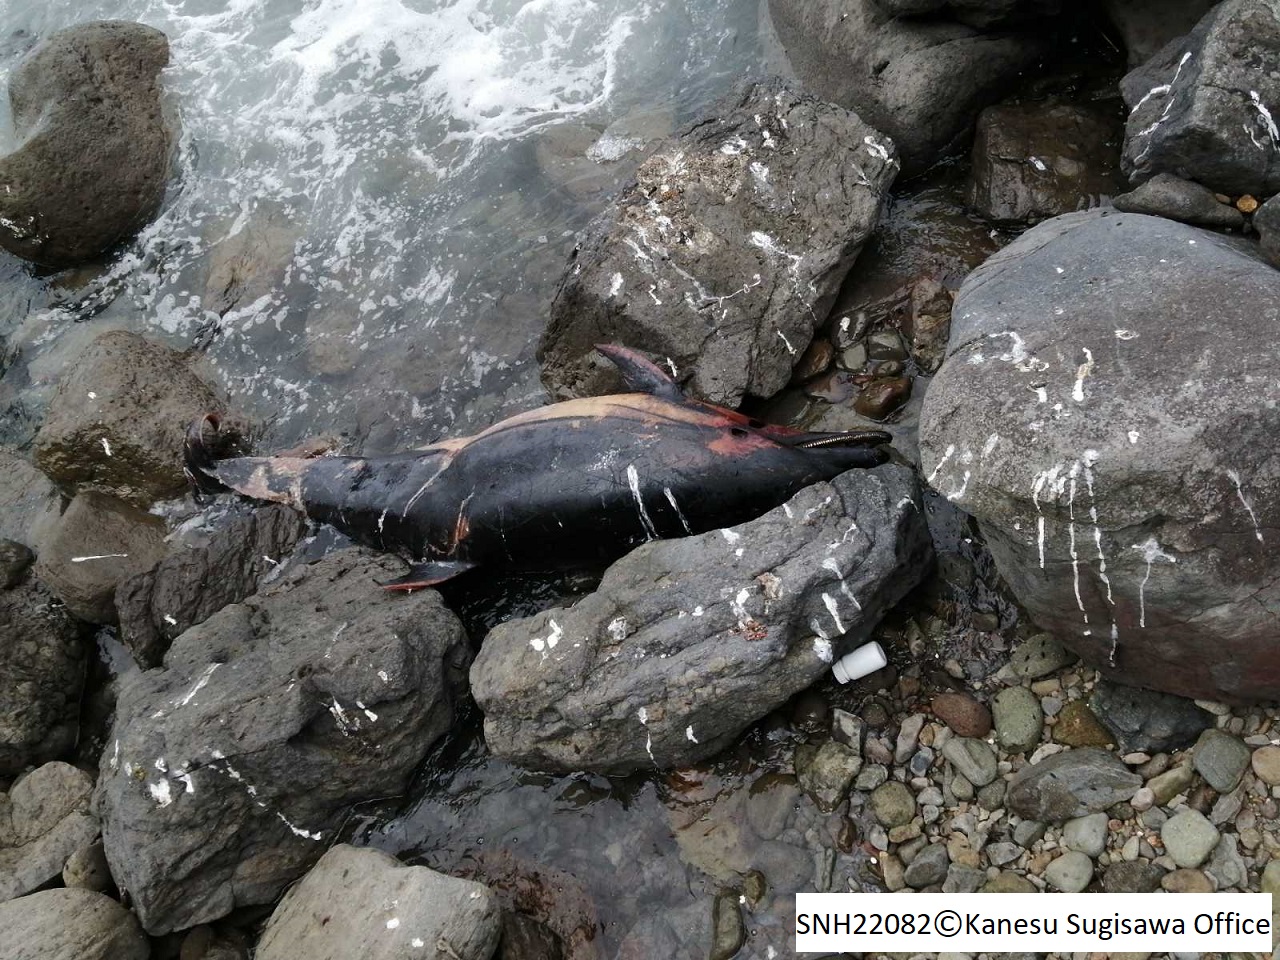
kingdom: Animalia
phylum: Chordata
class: Mammalia
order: Cetacea
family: Delphinidae
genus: Stenella
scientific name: Stenella coeruleoalba
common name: Striped dolphin
